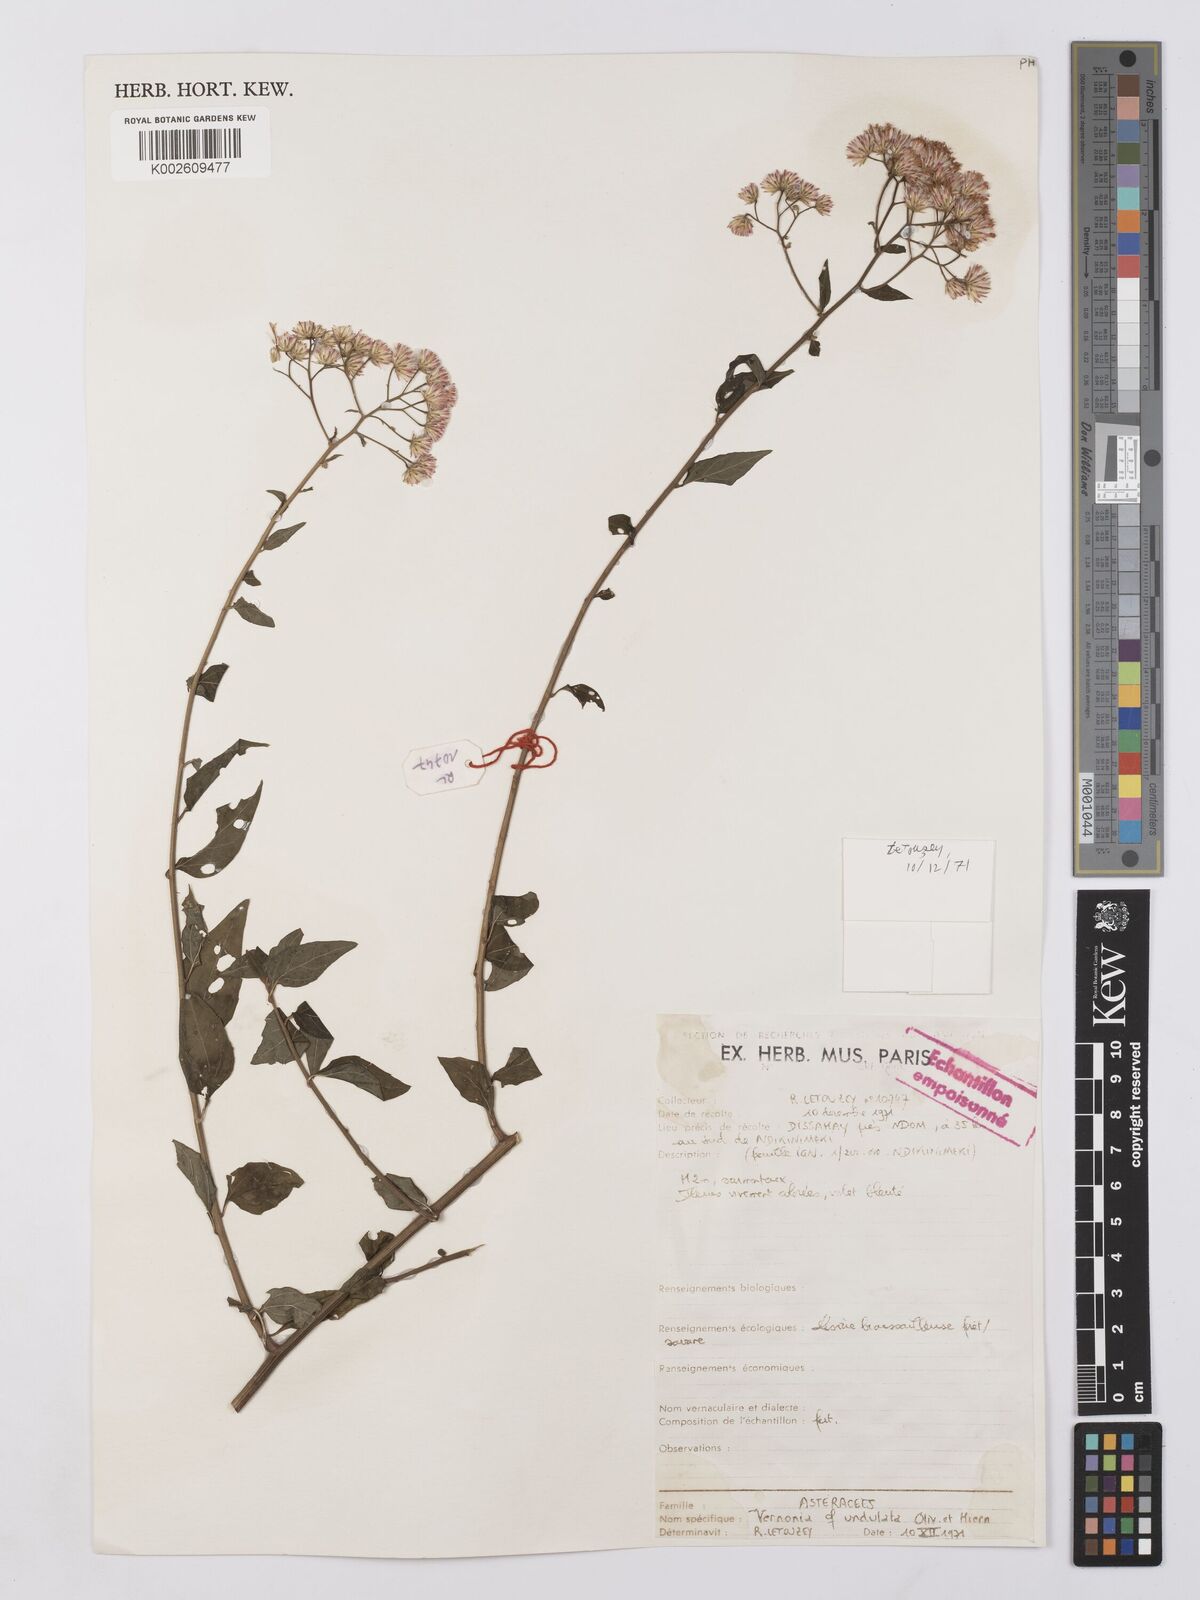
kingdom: Plantae
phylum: Tracheophyta
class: Magnoliopsida
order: Asterales
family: Asteraceae
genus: Vernonia
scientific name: Vernonia
